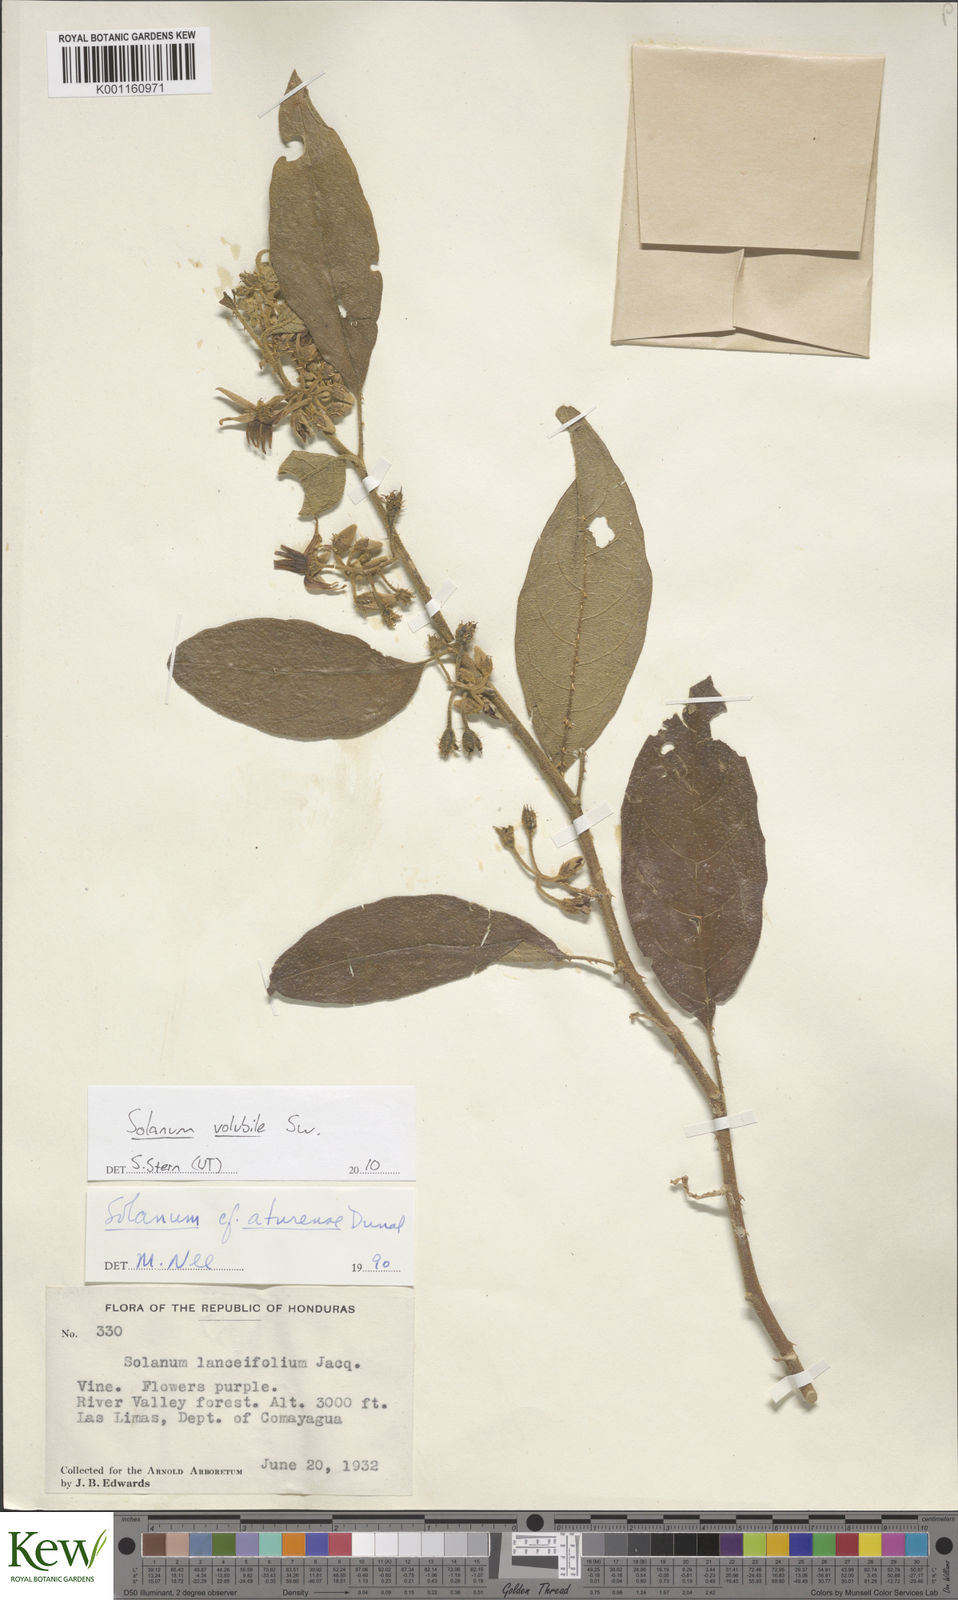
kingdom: Plantae
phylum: Tracheophyta
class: Magnoliopsida
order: Solanales
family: Solanaceae
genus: Solanum
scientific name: Solanum volubile
